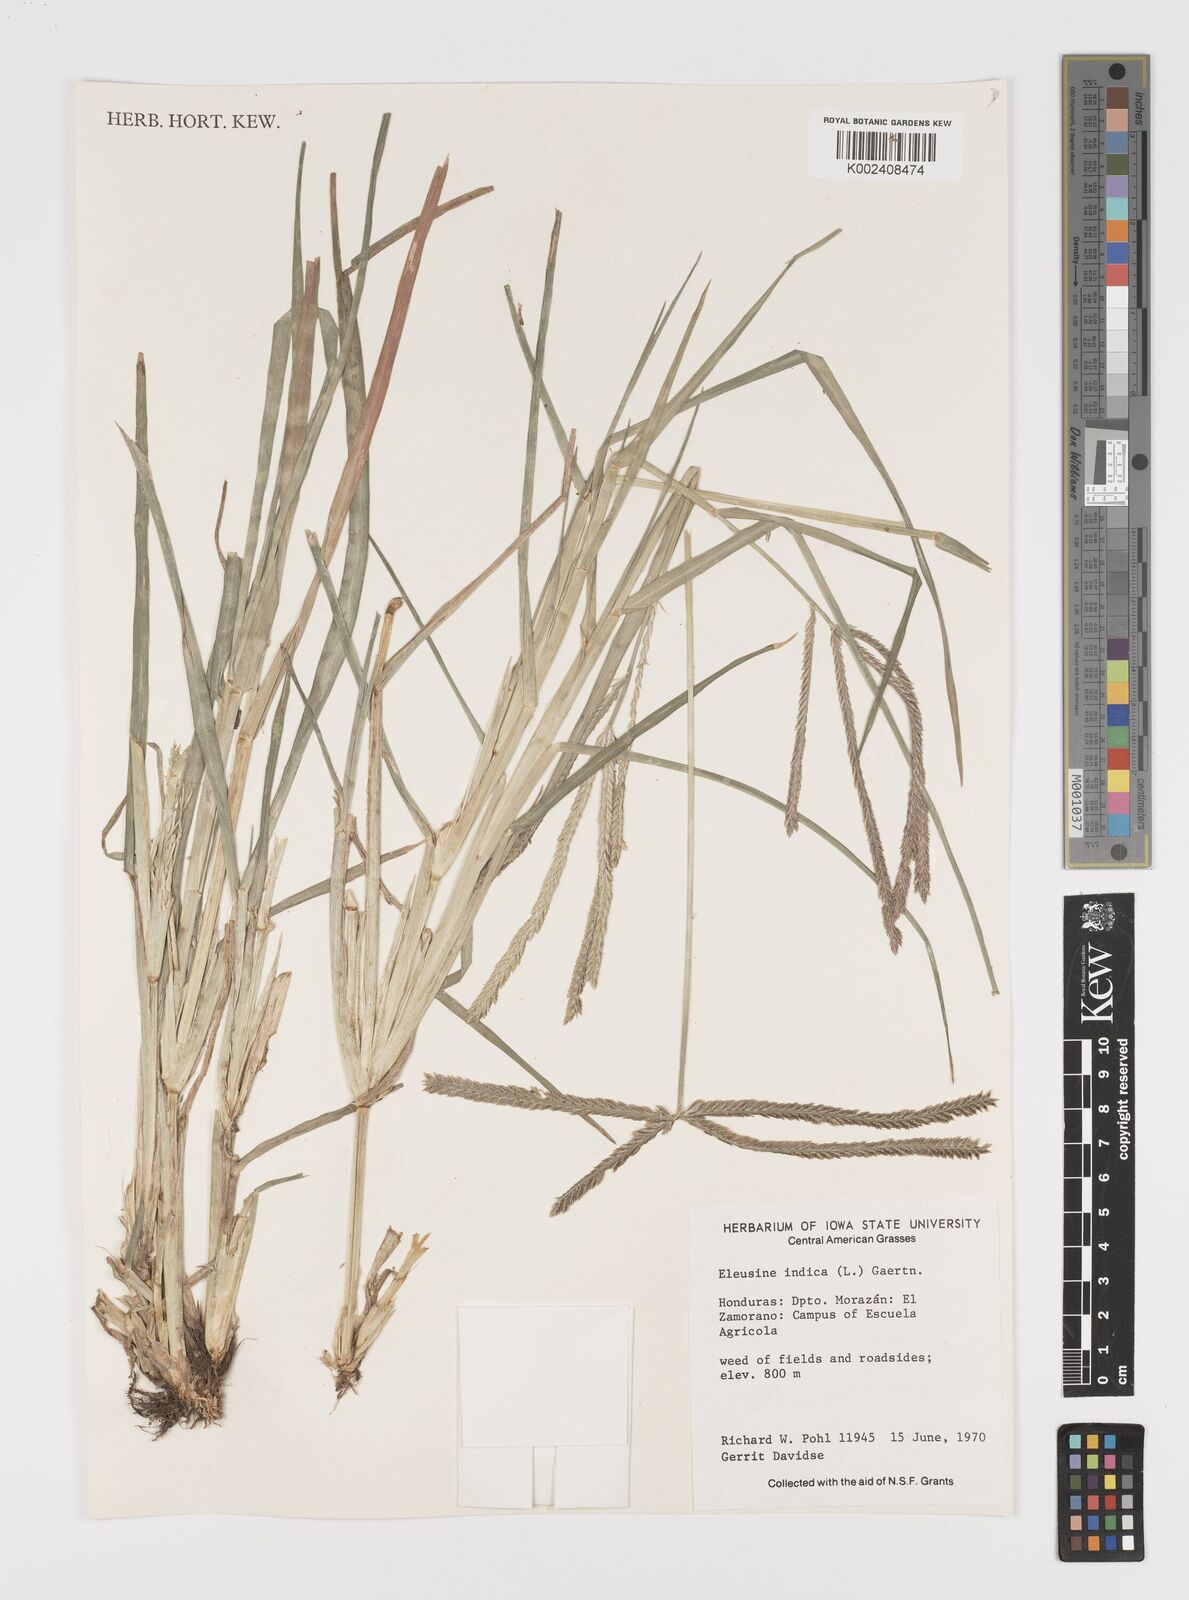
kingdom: Plantae
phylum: Tracheophyta
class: Liliopsida
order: Poales
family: Poaceae
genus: Eleusine
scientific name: Eleusine indica
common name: Yard-grass
